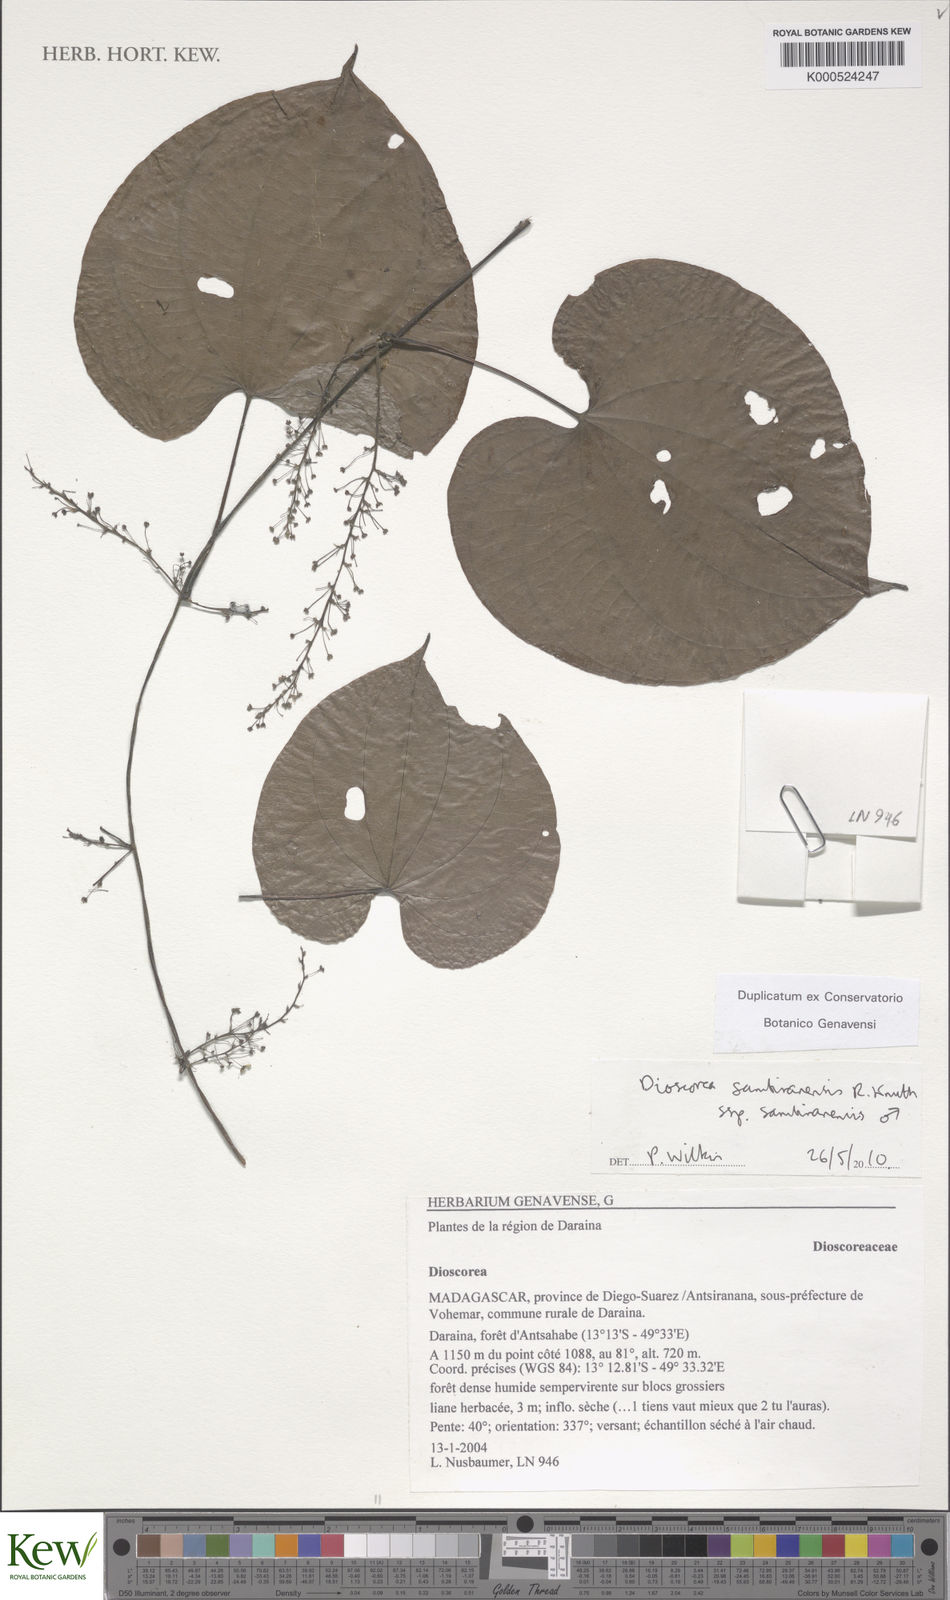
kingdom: Plantae
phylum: Tracheophyta
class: Liliopsida
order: Dioscoreales
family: Dioscoreaceae
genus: Dioscorea
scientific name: Dioscorea sambiranensis
